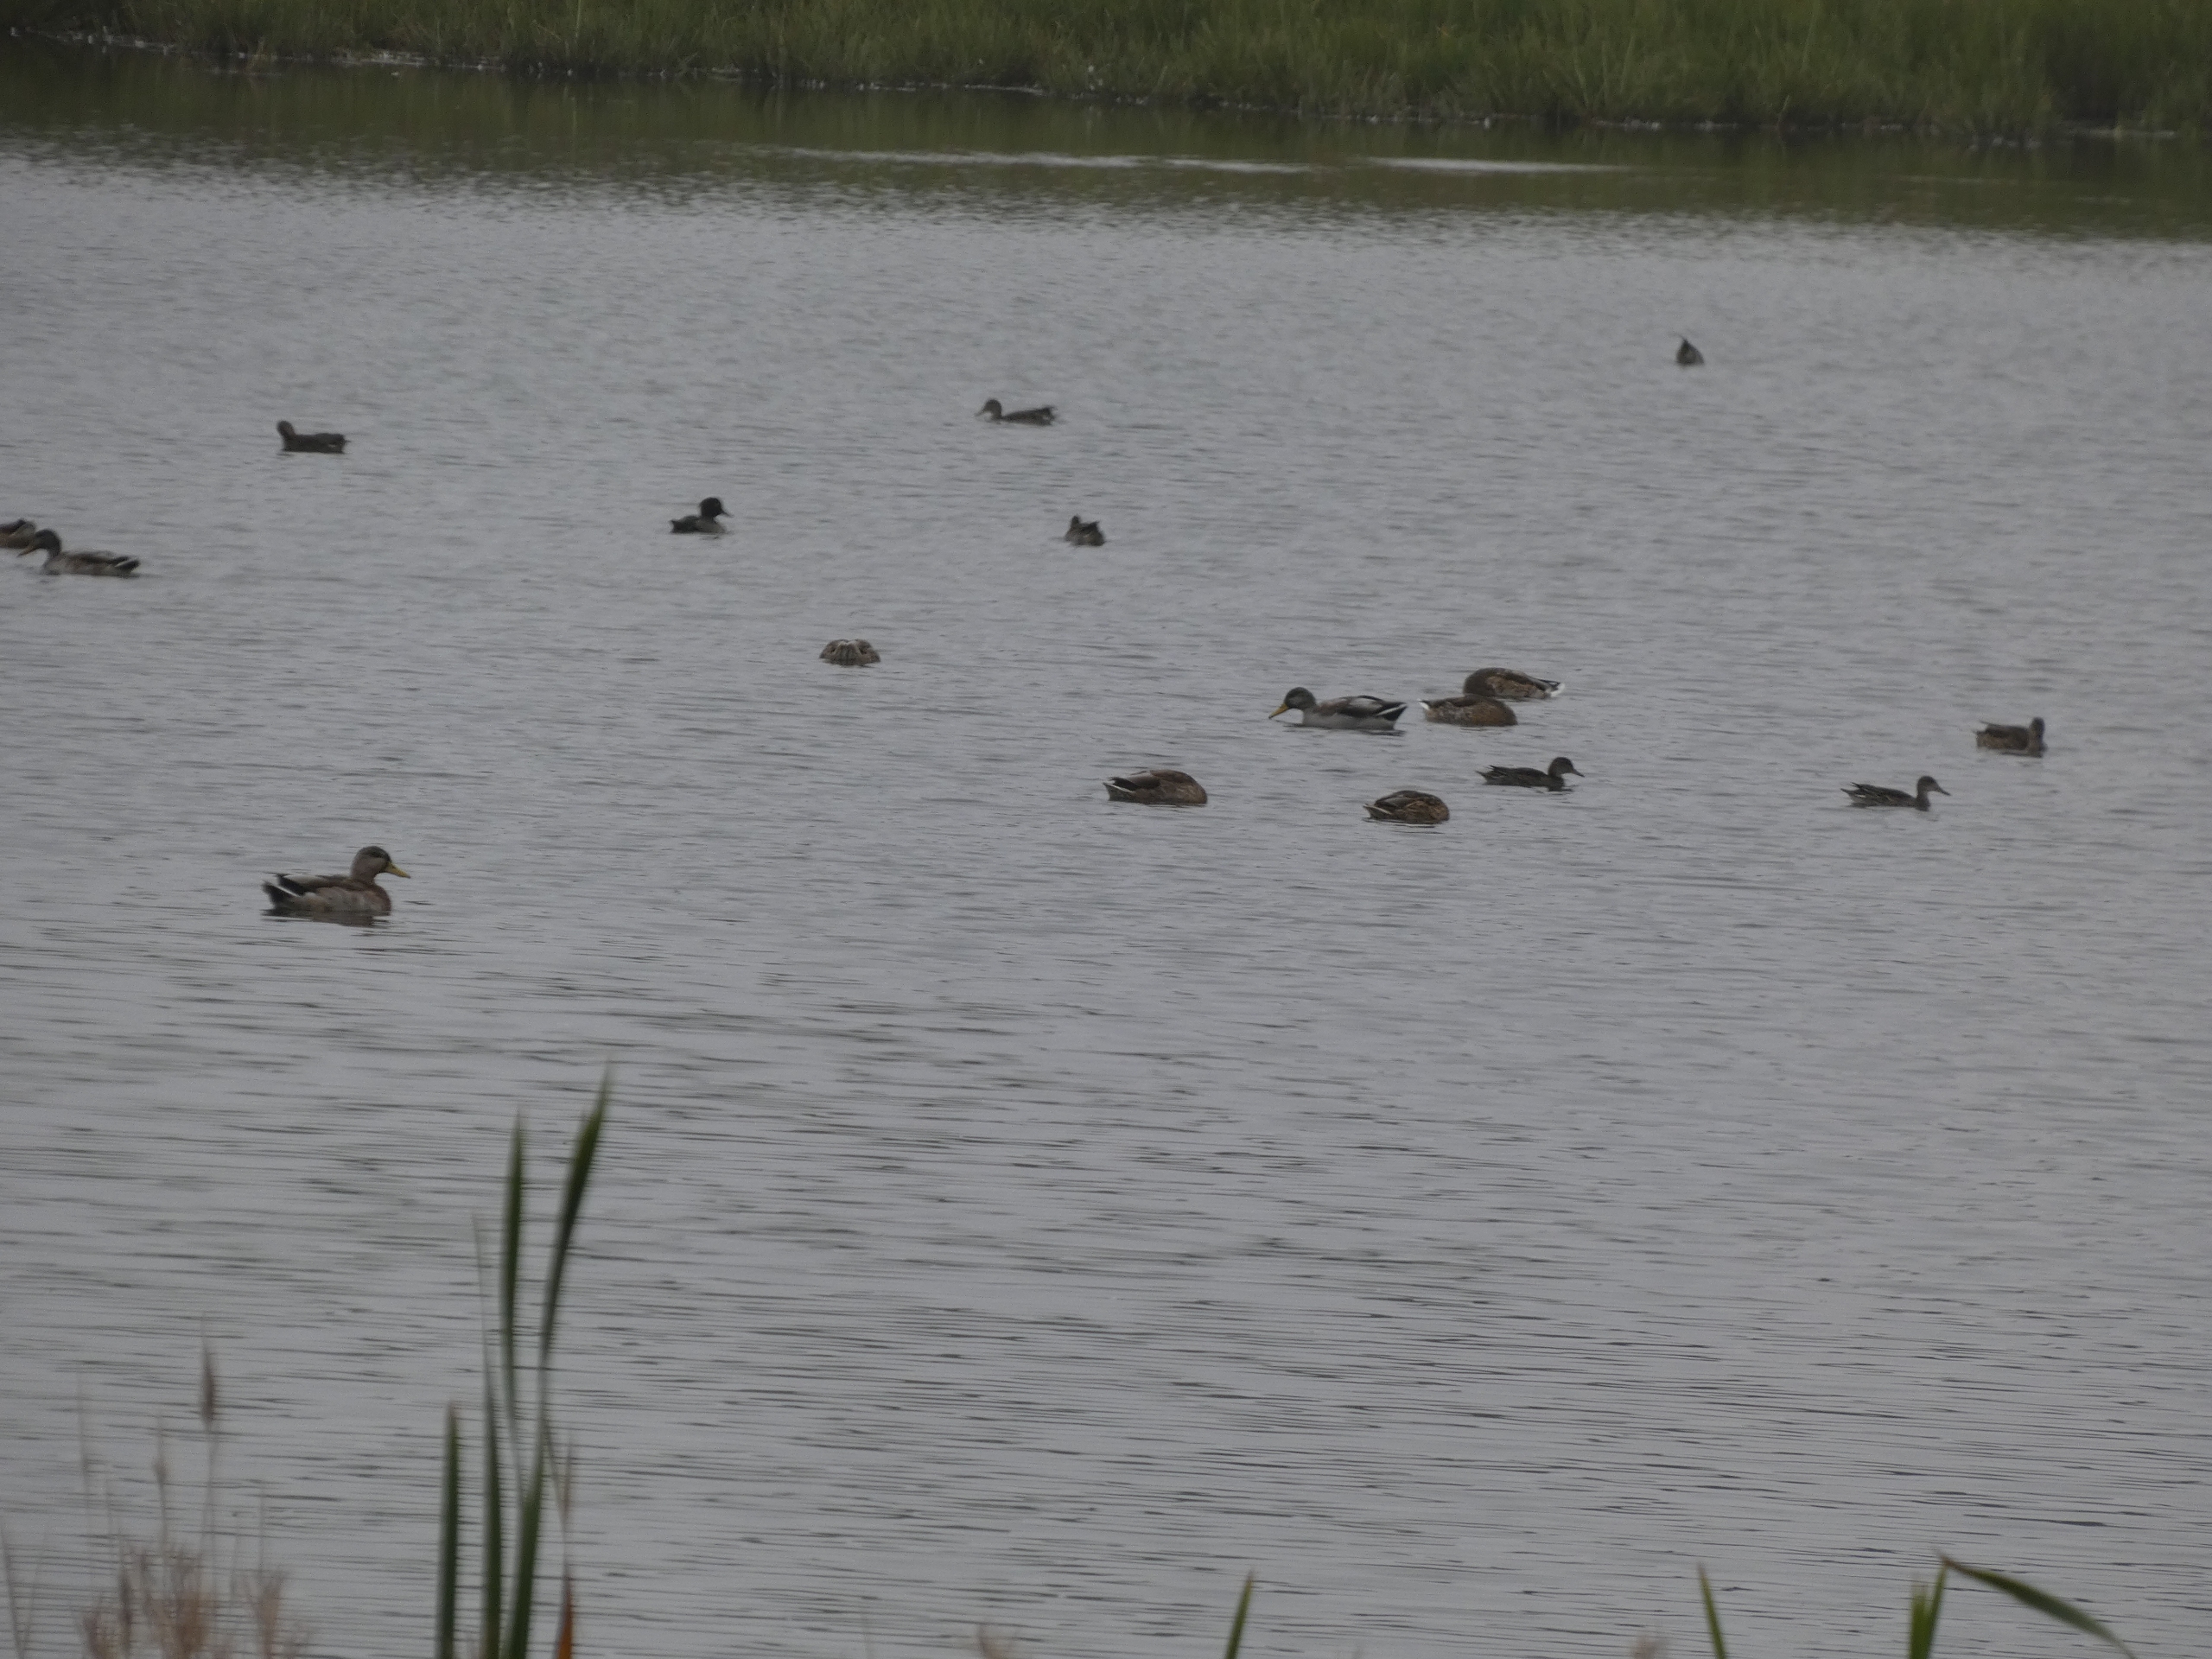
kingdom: Animalia
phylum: Chordata
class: Aves
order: Anseriformes
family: Anatidae
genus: Anas
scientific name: Anas crecca
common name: Krikand
